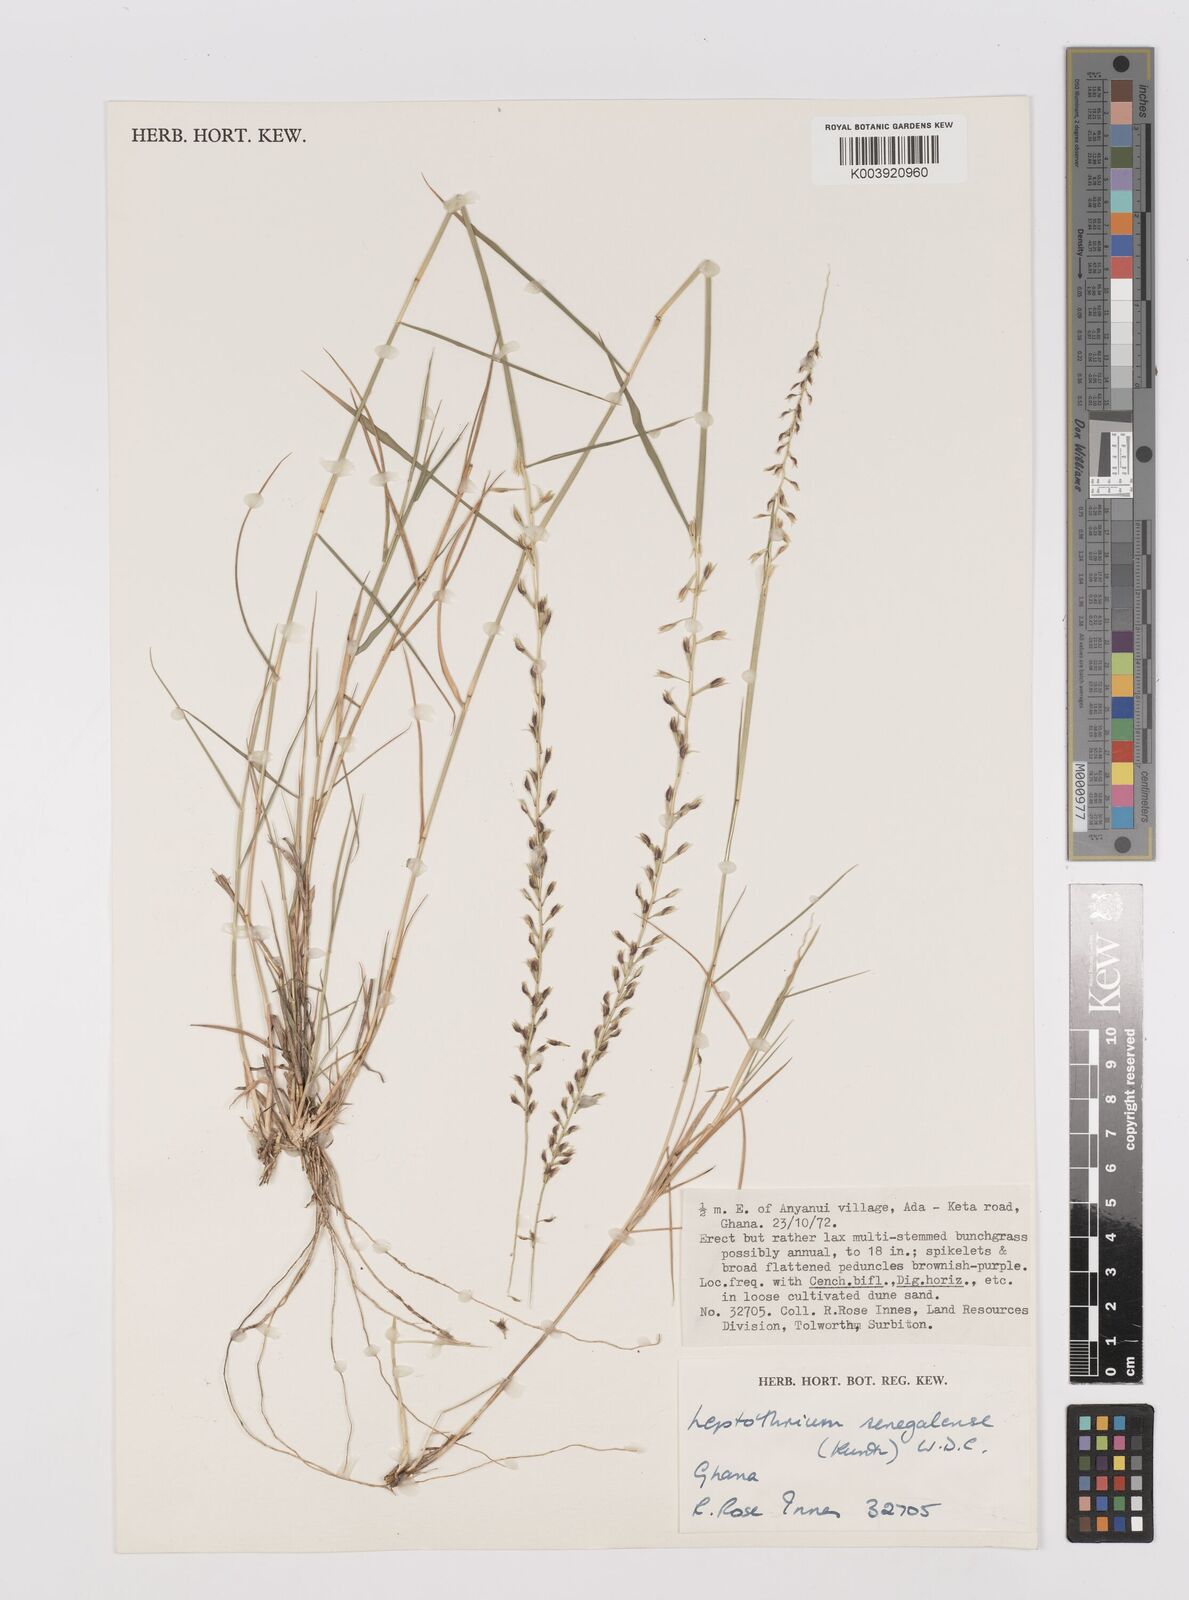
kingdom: Plantae
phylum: Tracheophyta
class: Liliopsida
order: Poales
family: Poaceae
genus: Leptothrium
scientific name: Leptothrium senegalense
